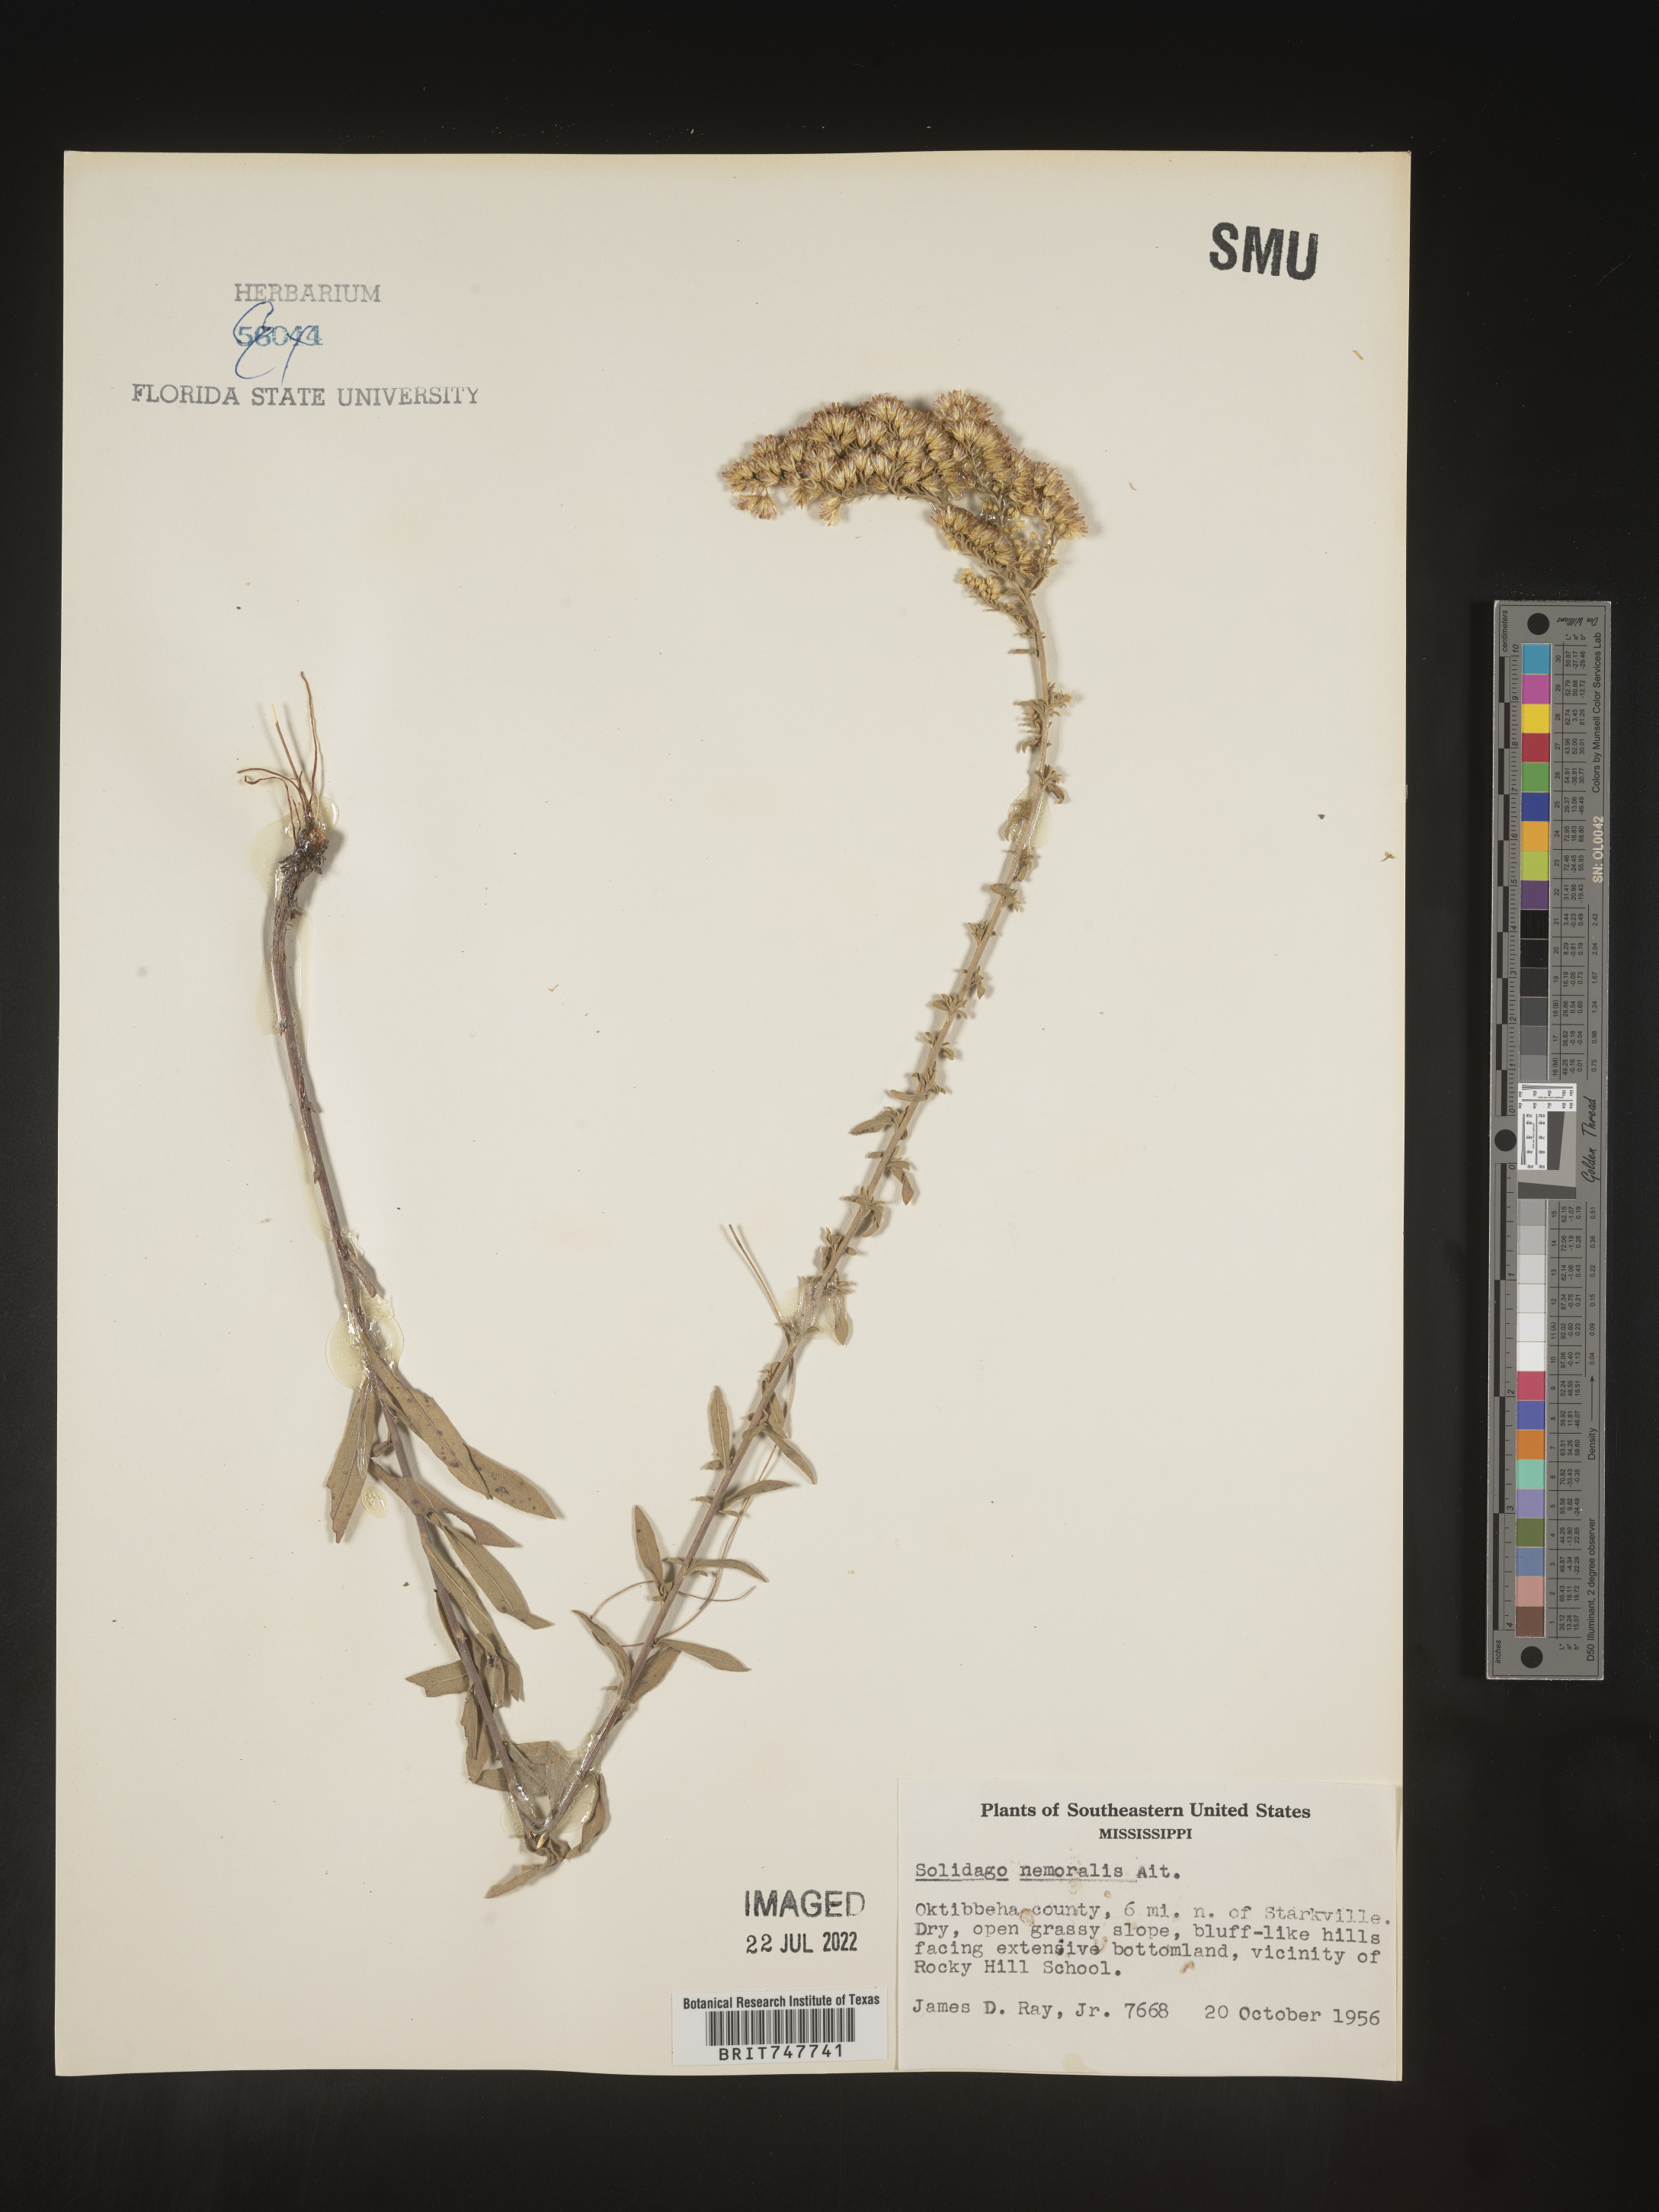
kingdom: Plantae
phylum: Tracheophyta
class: Magnoliopsida
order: Asterales
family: Asteraceae
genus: Solidago
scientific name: Solidago nemoralis
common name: Grey goldenrod
